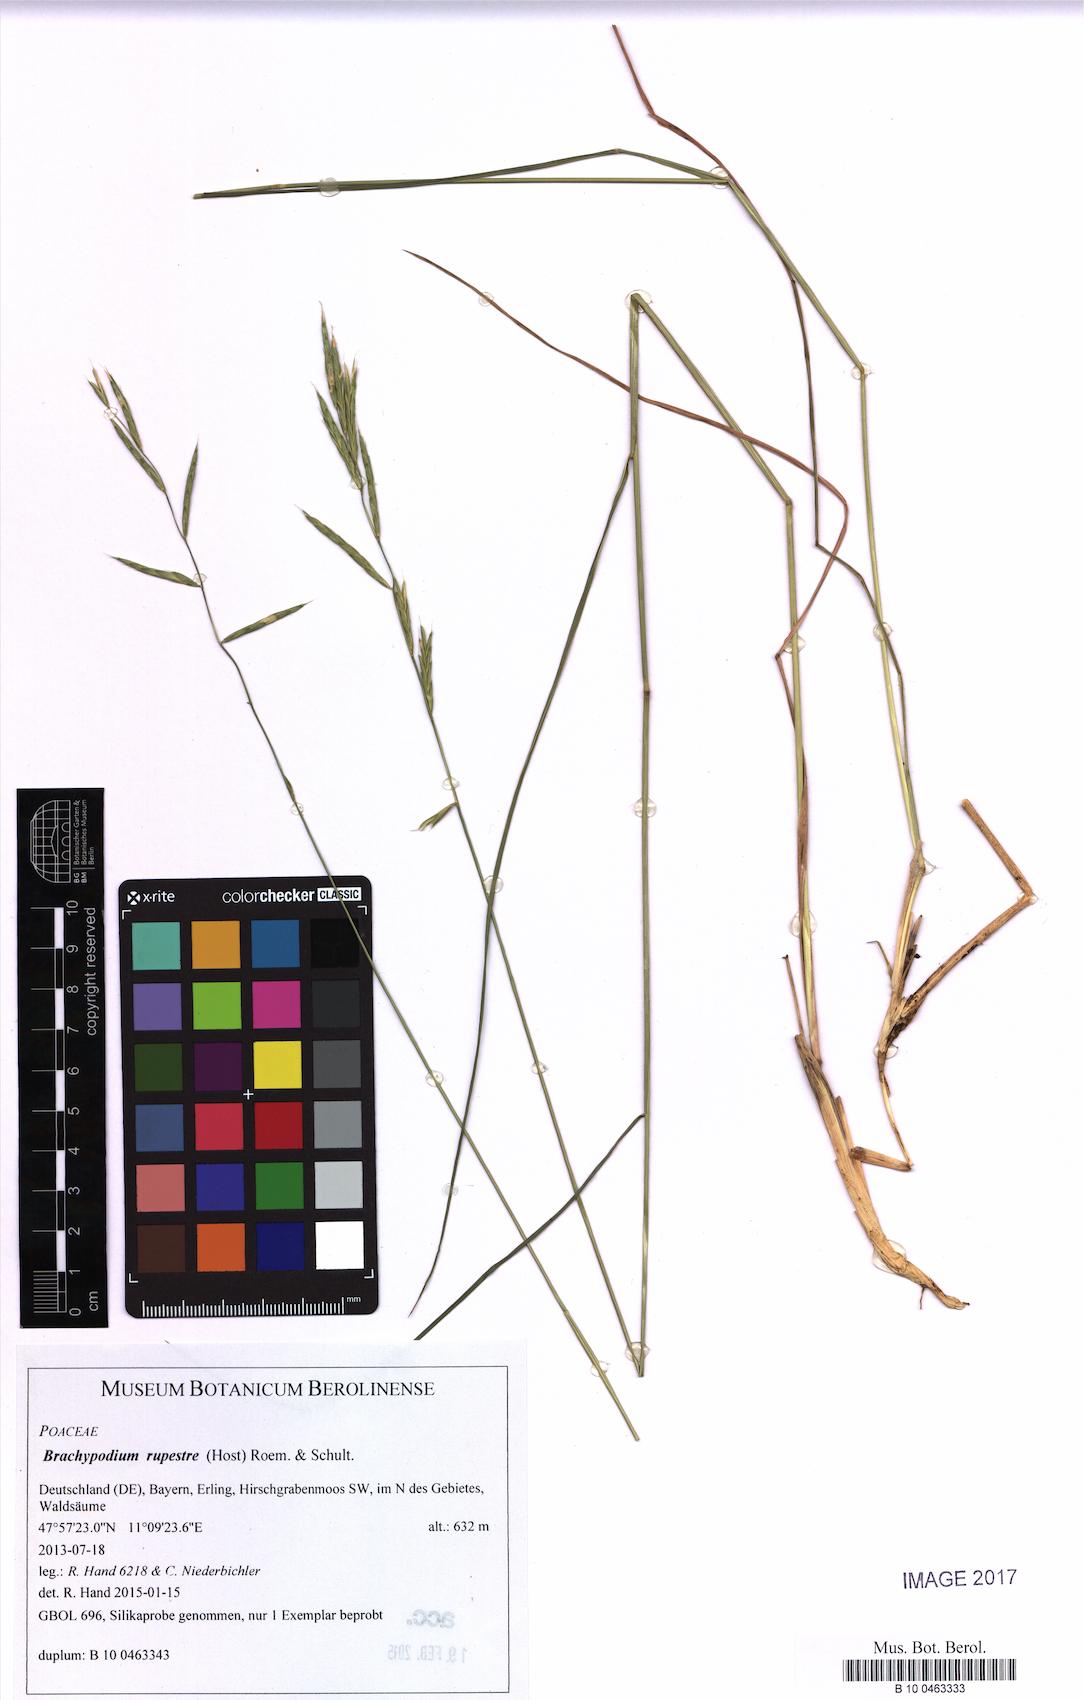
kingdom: Plantae
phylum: Tracheophyta
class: Liliopsida
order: Poales
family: Poaceae
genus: Brachypodium
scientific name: Brachypodium pinnatum
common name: Tor grass
